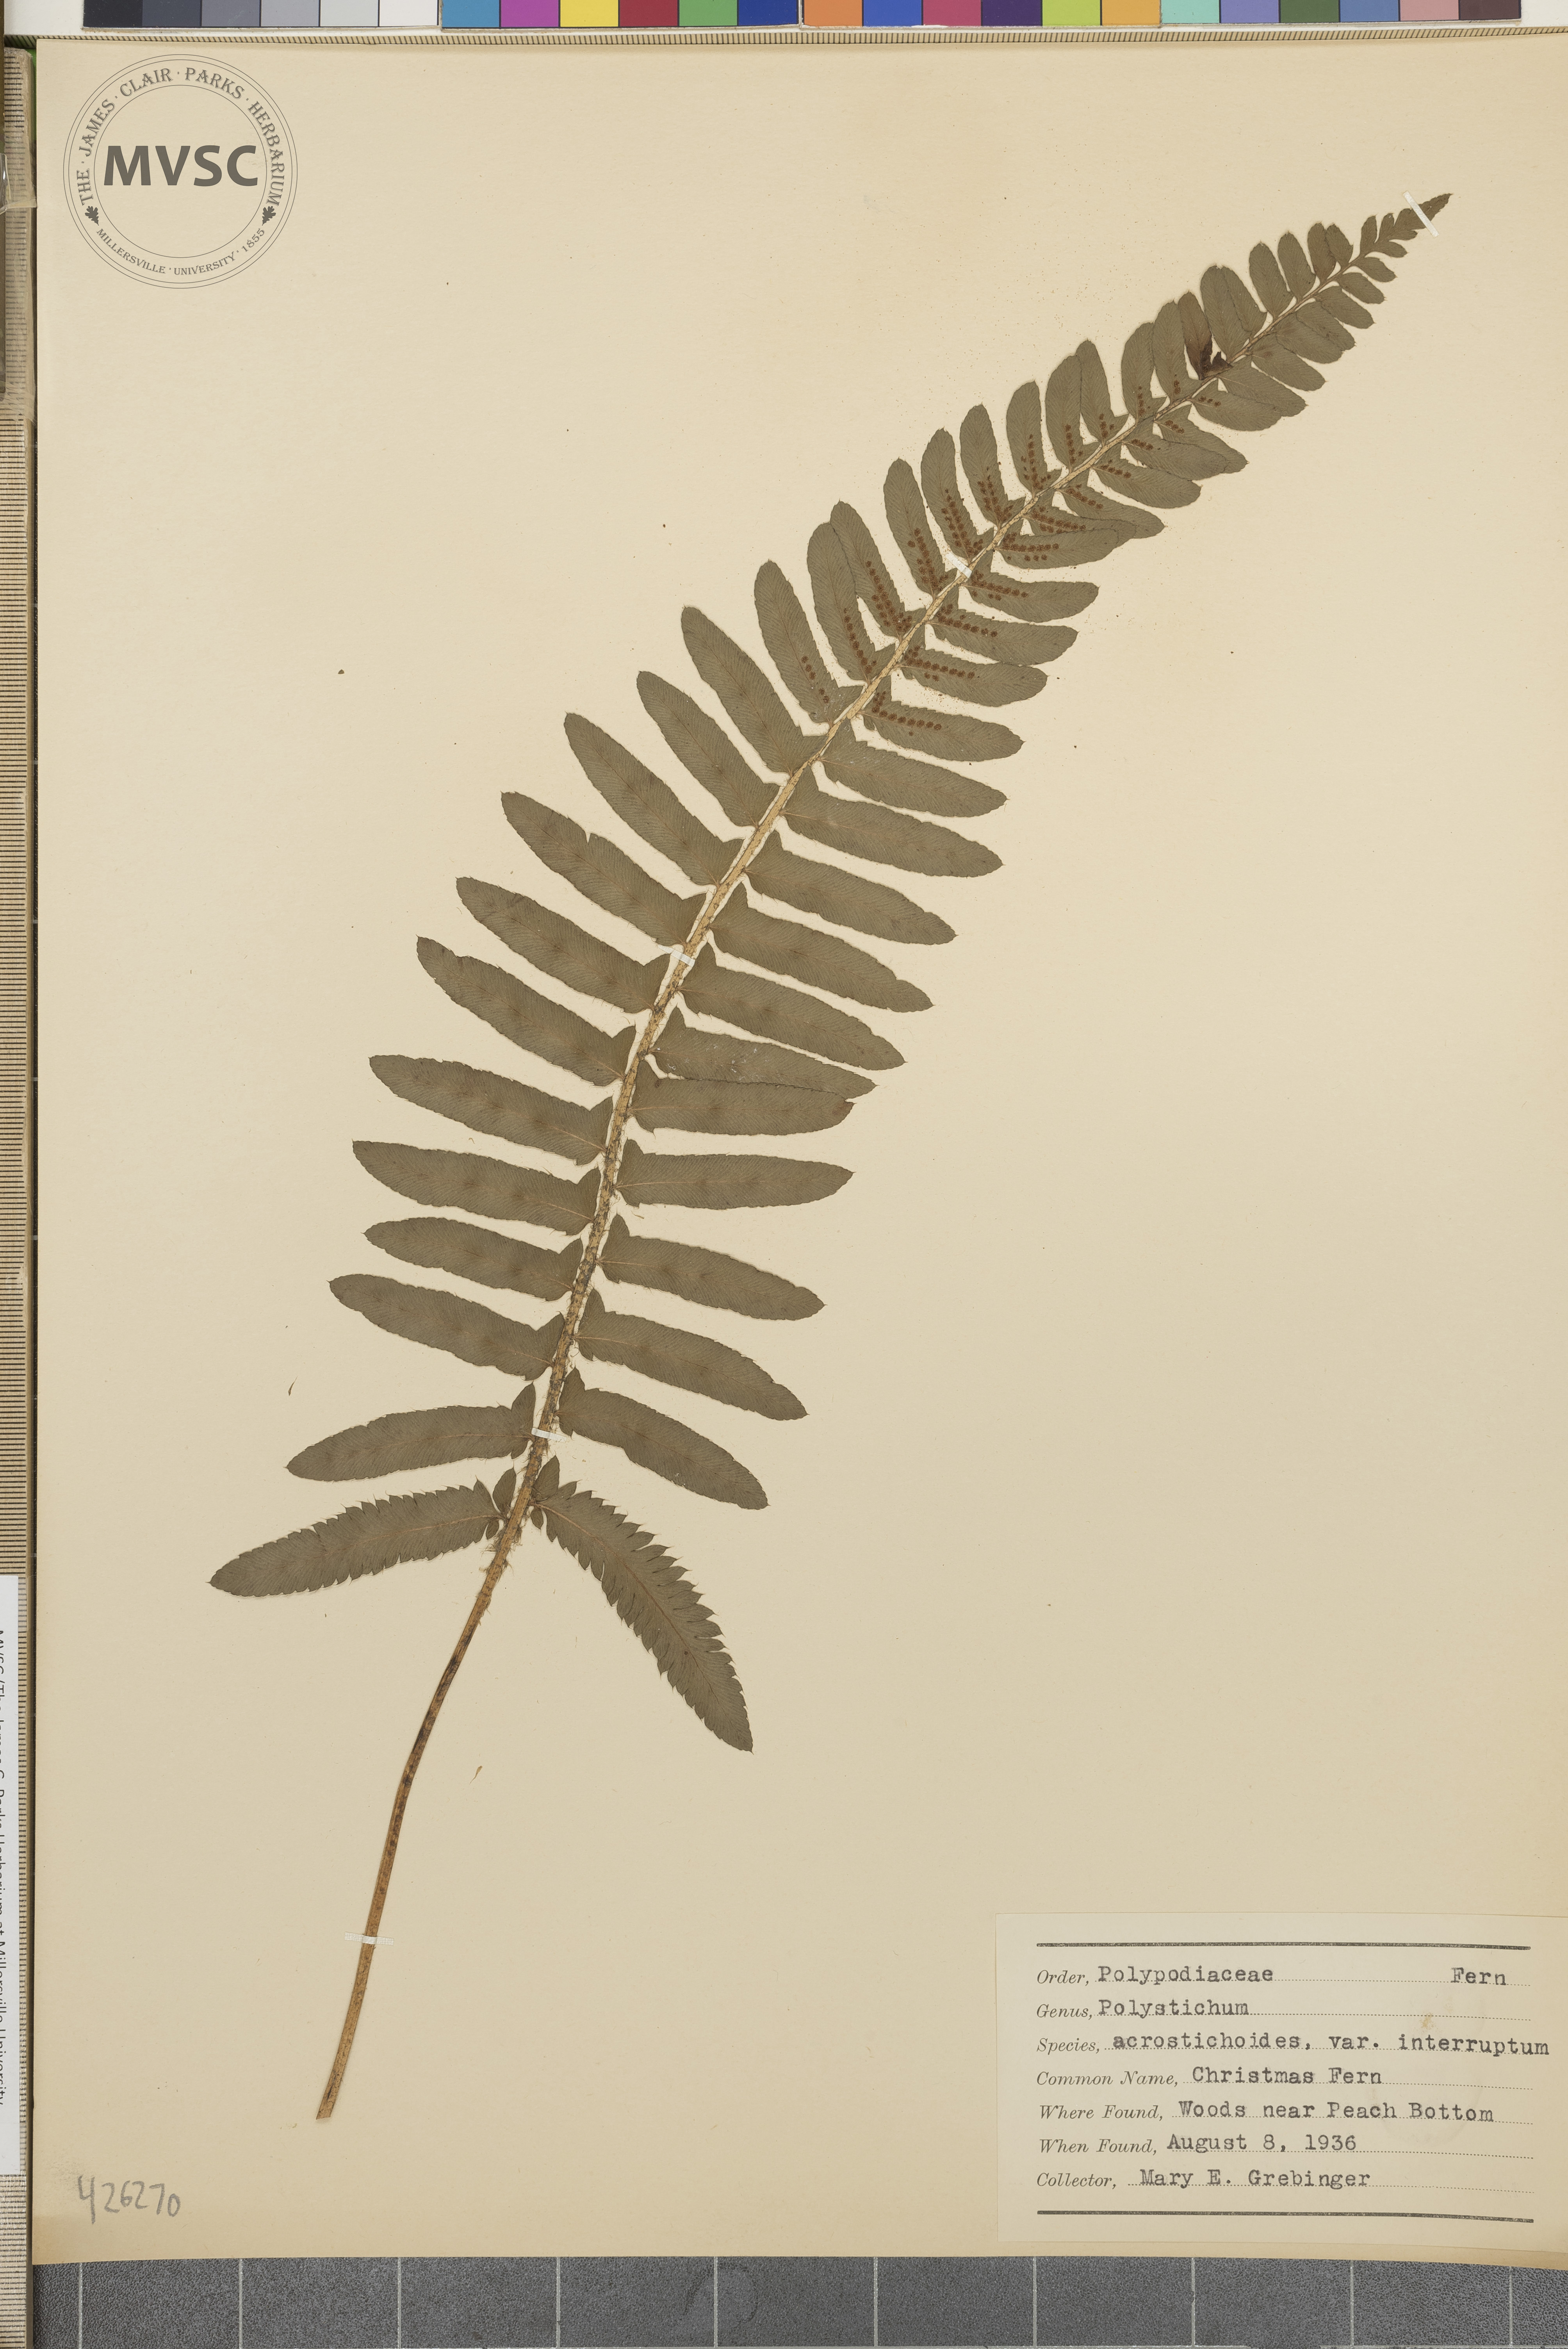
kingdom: Plantae
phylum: Tracheophyta
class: Polypodiopsida
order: Polypodiales
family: Dryopteridaceae
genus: Polystichum
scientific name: Polystichum acrostichoides
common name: Christmas Fern
